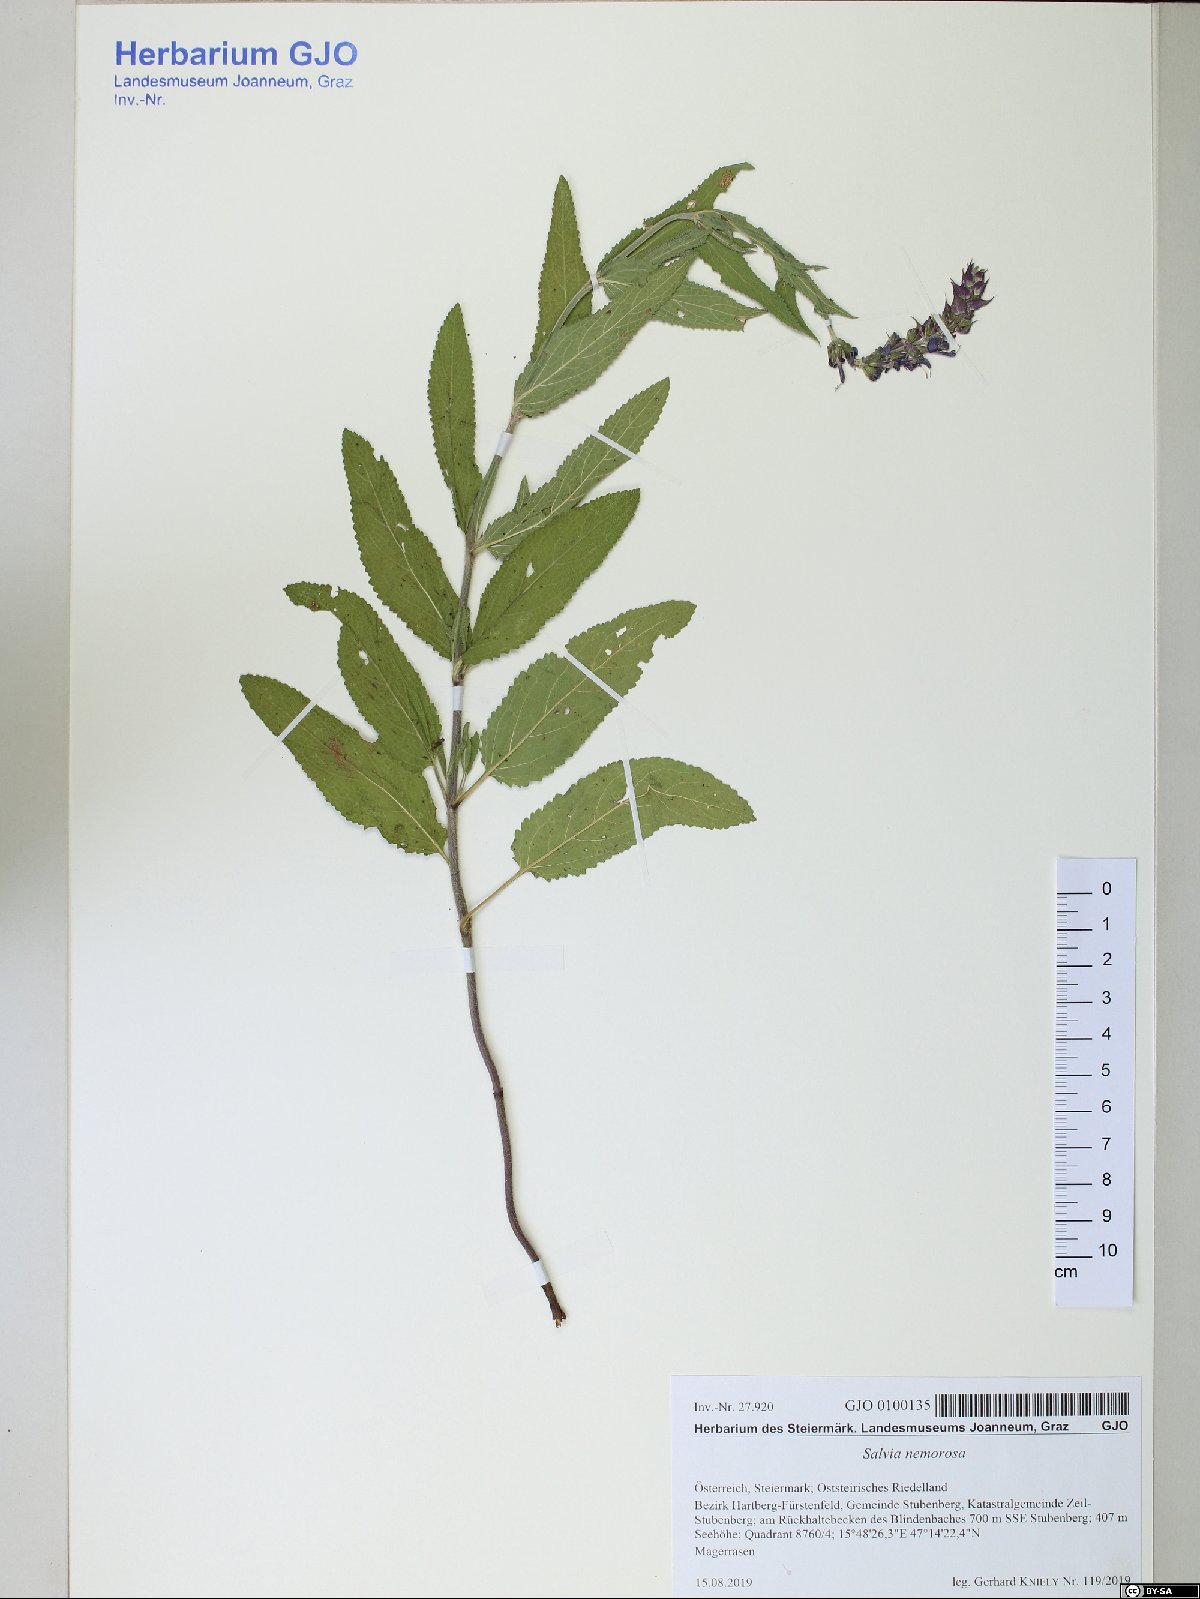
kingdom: Plantae
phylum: Tracheophyta
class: Magnoliopsida
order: Lamiales
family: Lamiaceae
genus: Salvia
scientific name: Salvia nemorosa
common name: Balkan clary
